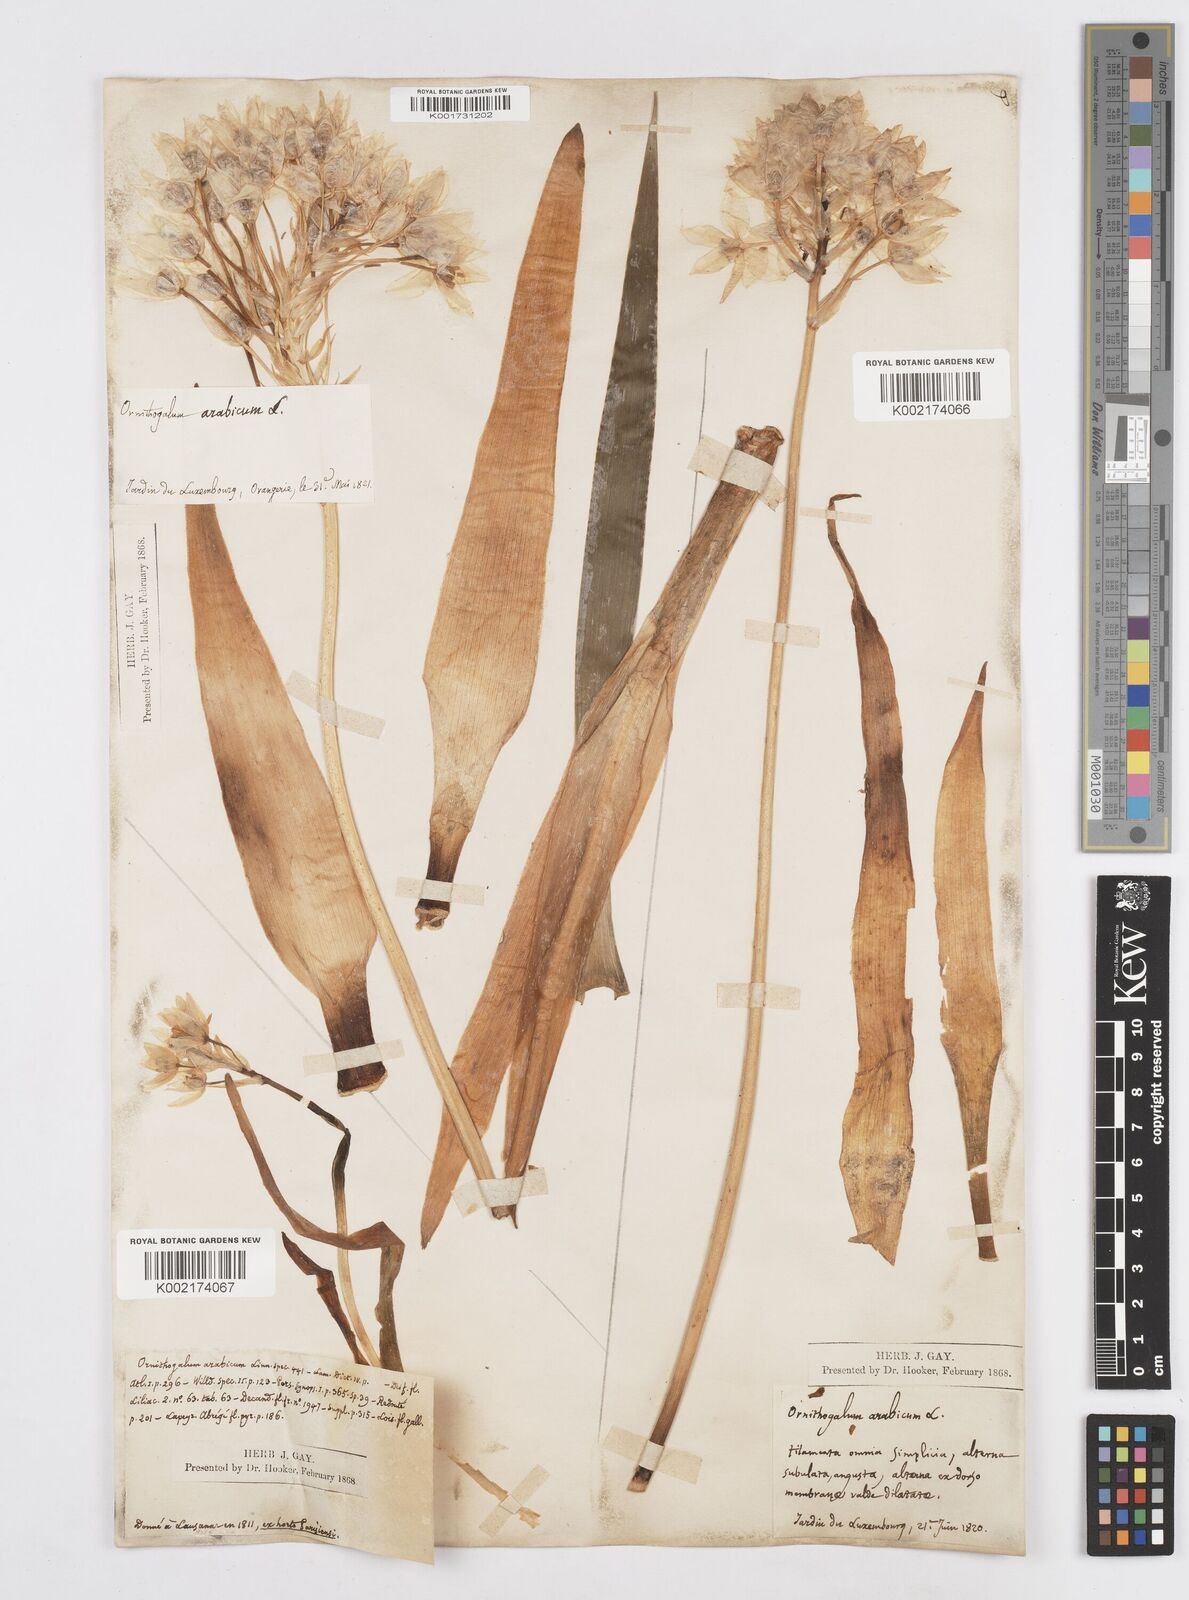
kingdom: Plantae
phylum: Tracheophyta
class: Liliopsida
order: Asparagales
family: Asparagaceae
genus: Ornithogalum
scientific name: Ornithogalum arabicum
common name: Arabian starflower
